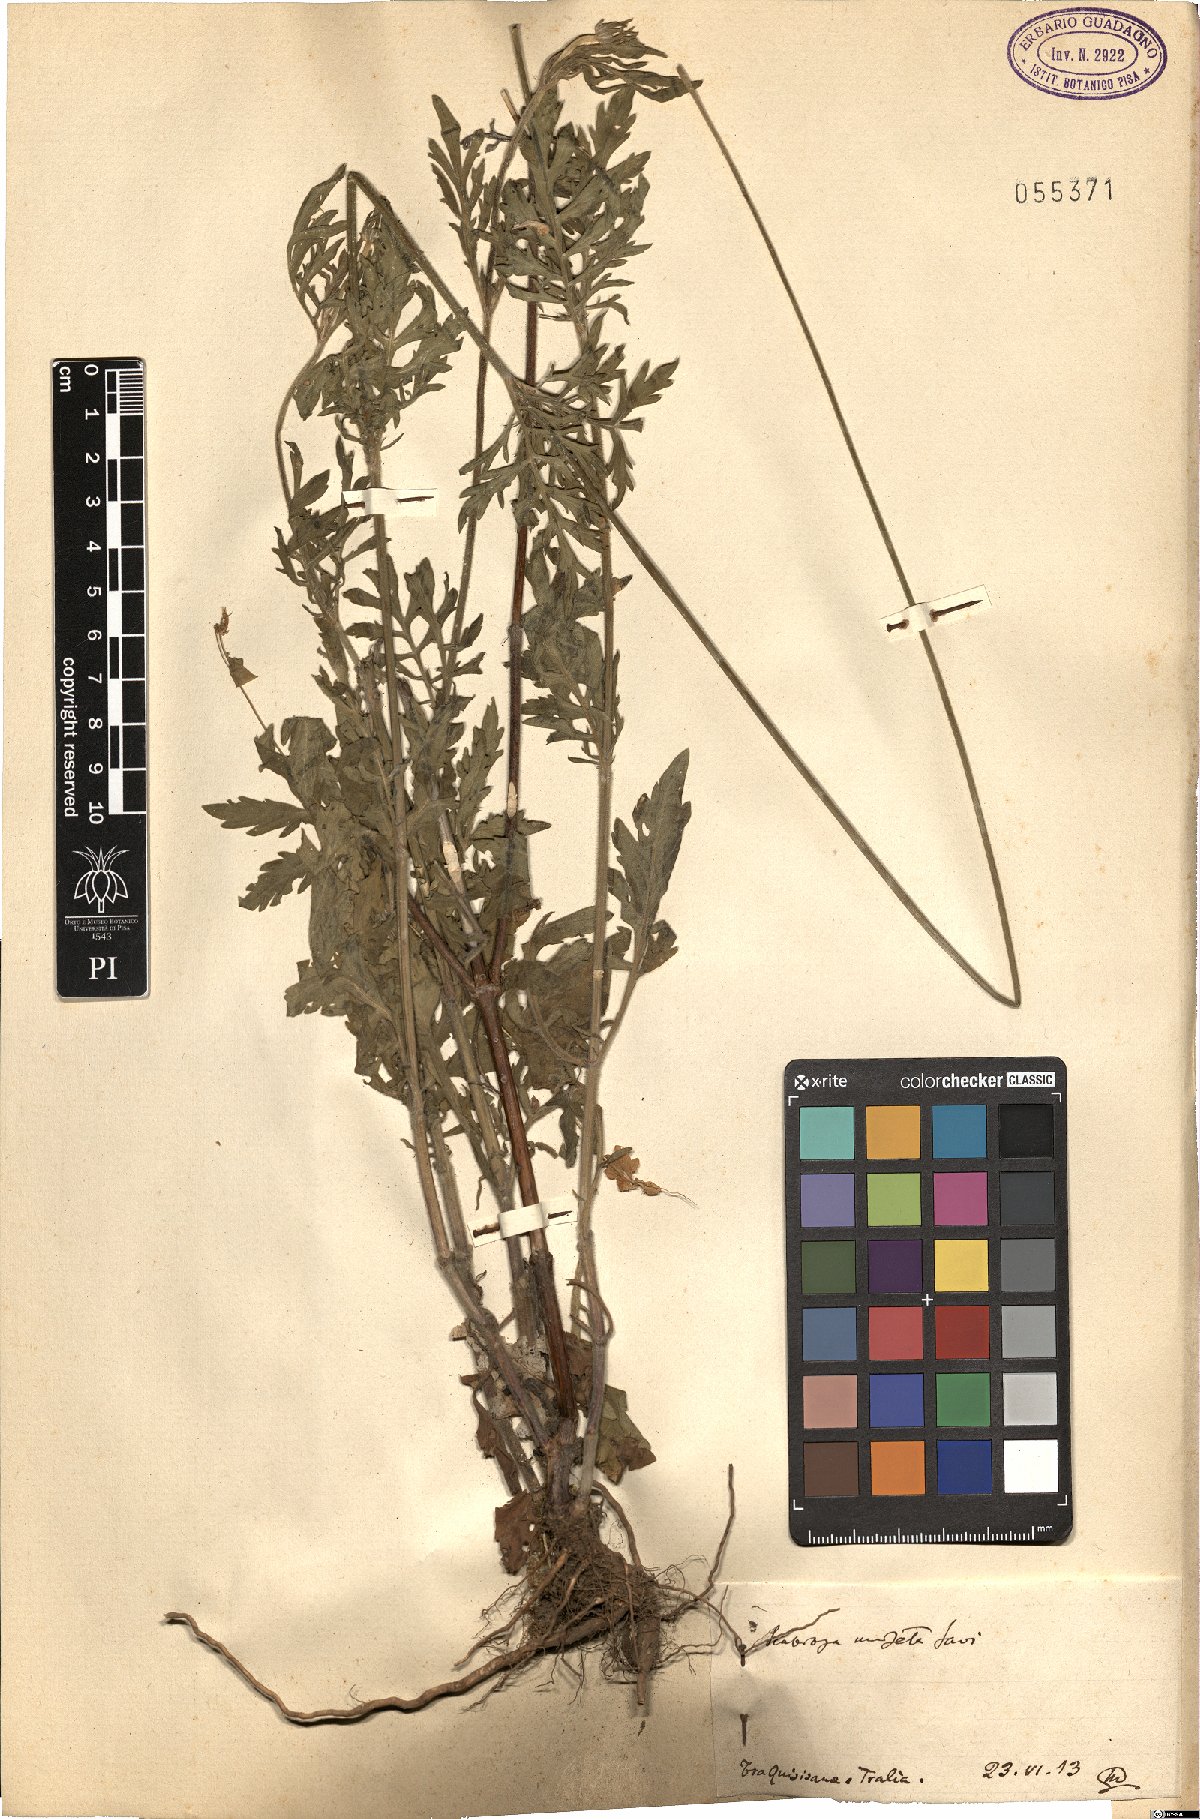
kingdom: Plantae
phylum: Tracheophyta
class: Magnoliopsida
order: Dipsacales
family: Caprifoliaceae
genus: Scabiosa
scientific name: Scabiosa columbaria
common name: Small scabious
